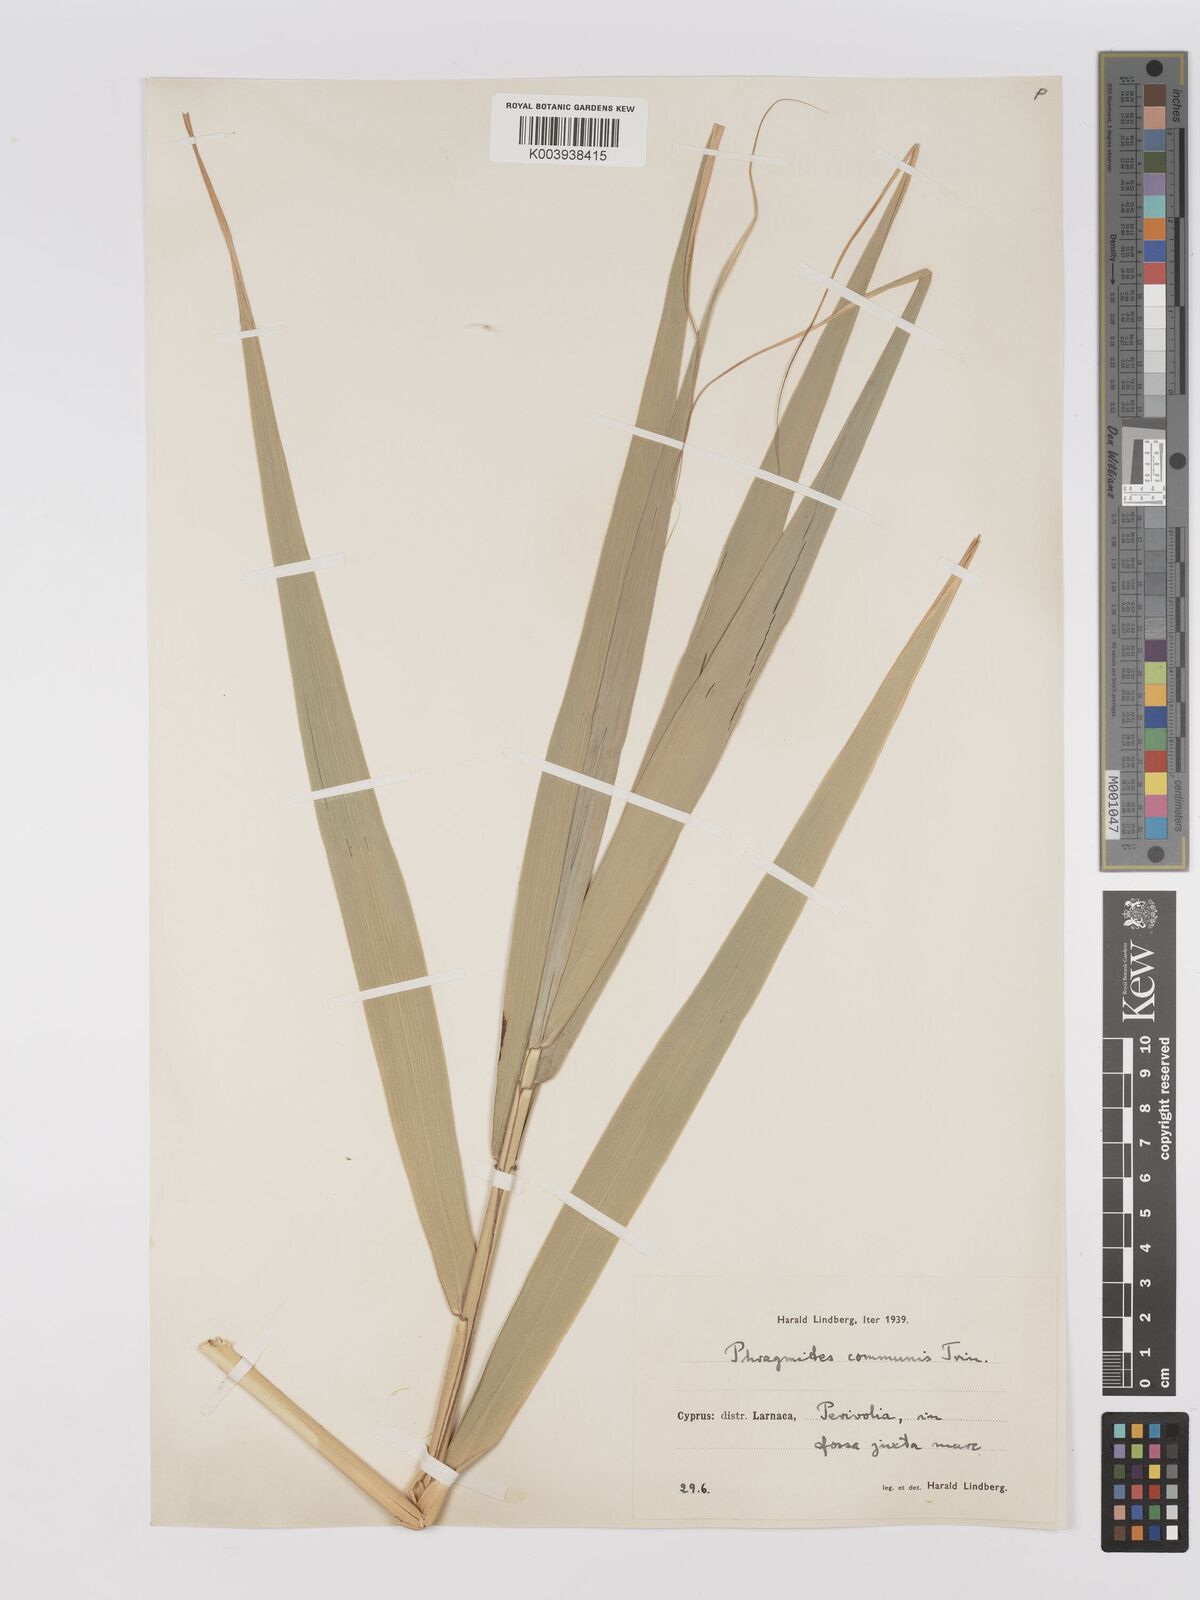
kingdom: Plantae
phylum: Tracheophyta
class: Liliopsida
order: Poales
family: Poaceae
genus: Phragmites
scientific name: Phragmites australis
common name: Common reed
